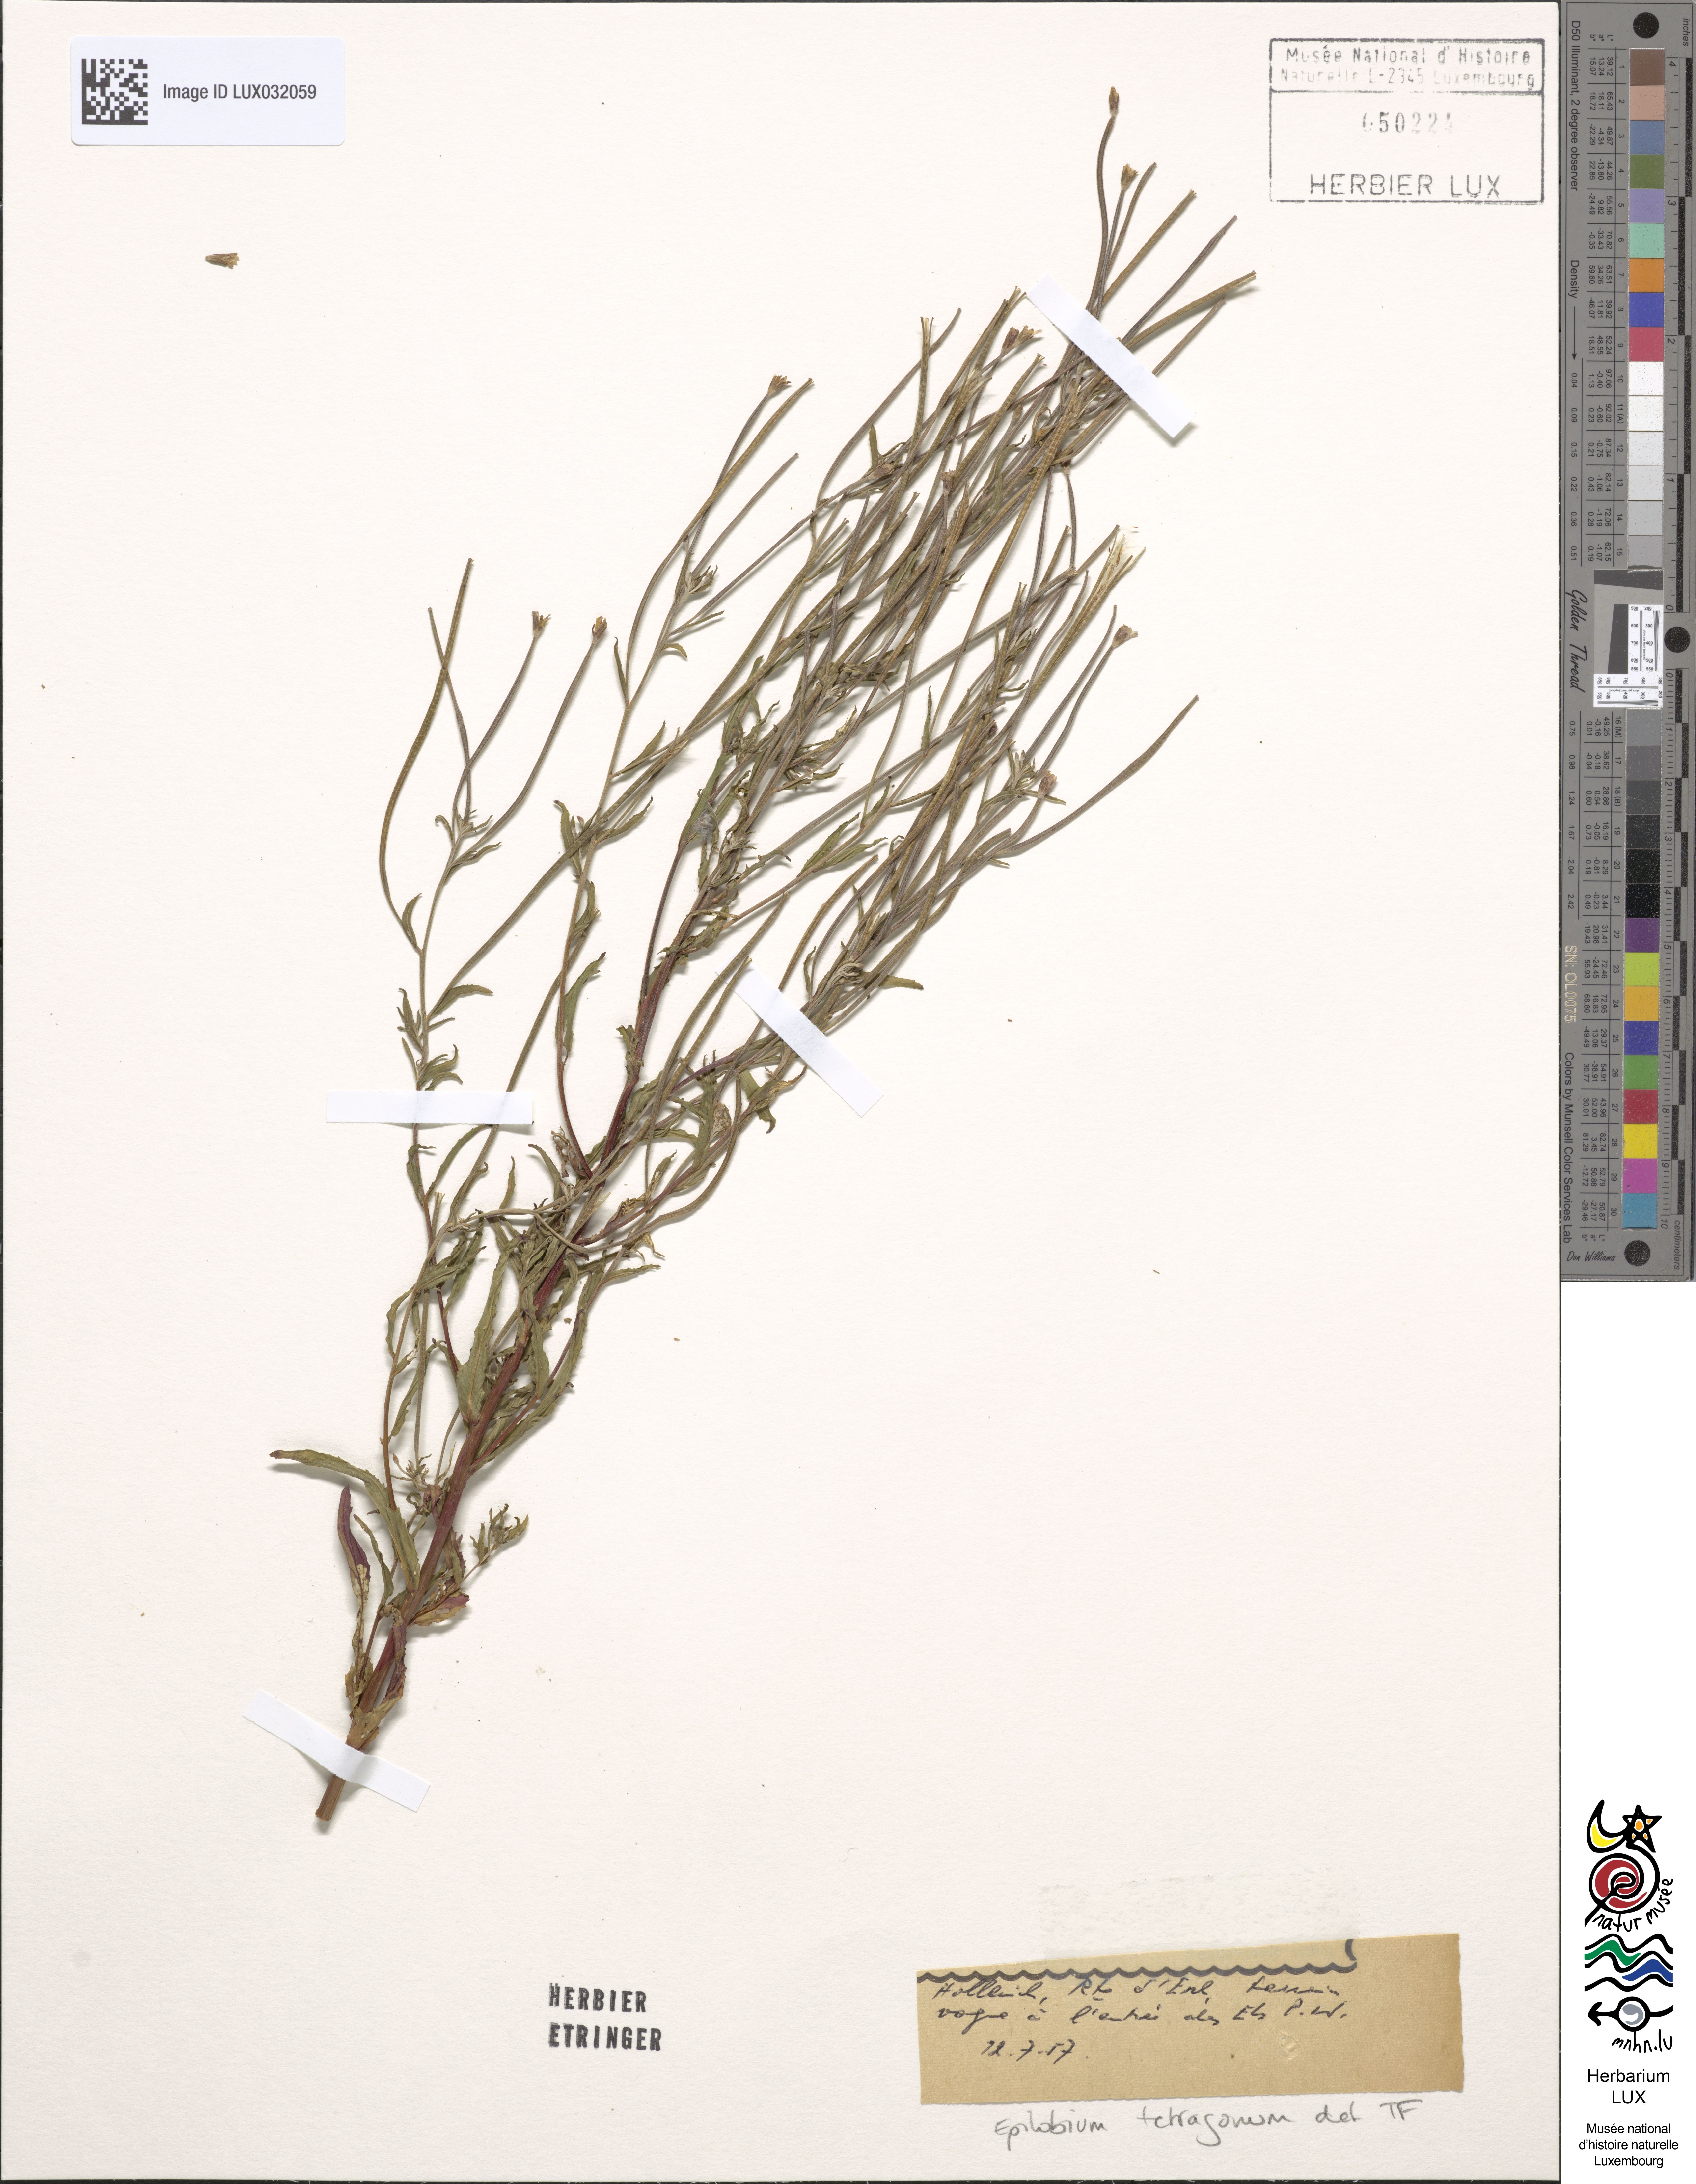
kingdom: Plantae
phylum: Tracheophyta
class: Magnoliopsida
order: Myrtales
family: Onagraceae
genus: Epilobium
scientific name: Epilobium tetragonum
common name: Square-stemmed willowherb
